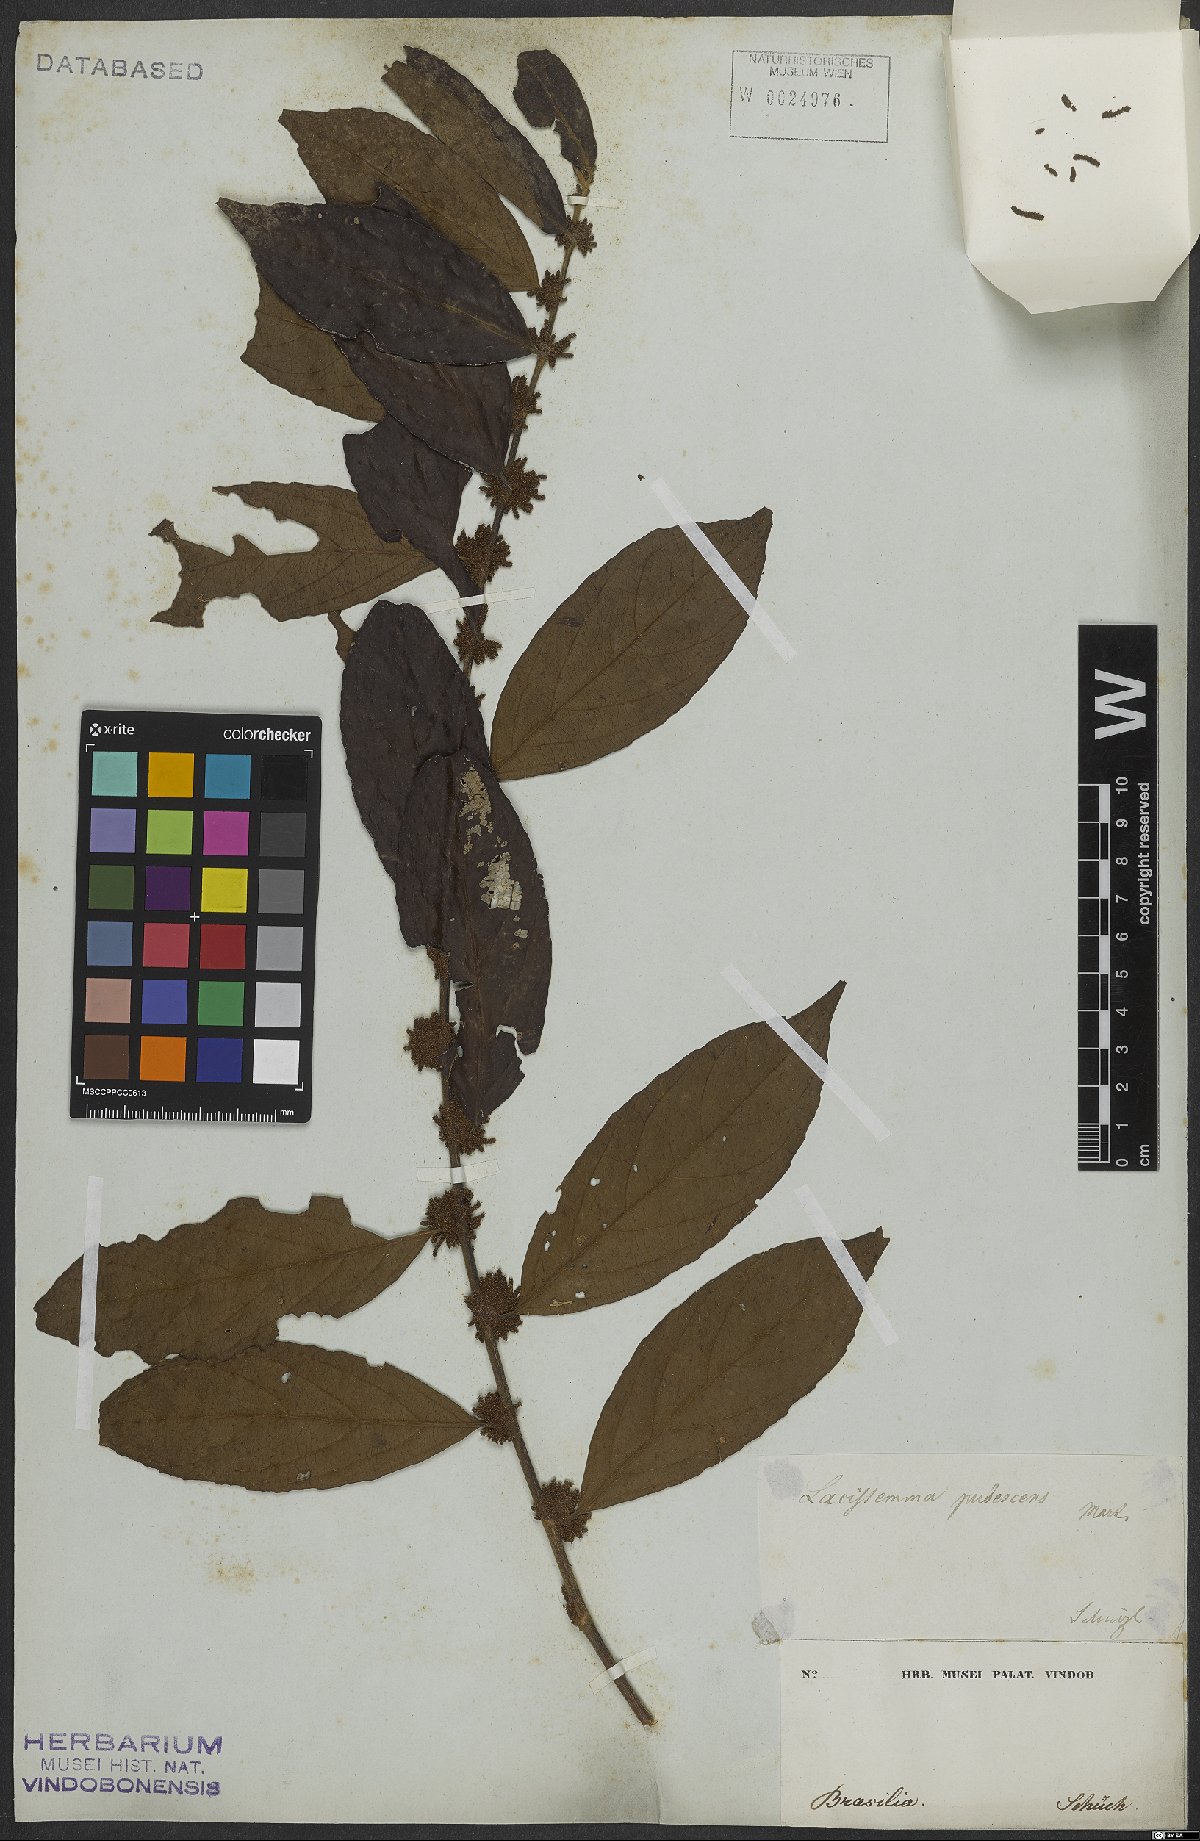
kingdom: Plantae
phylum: Tracheophyta
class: Magnoliopsida
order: Malpighiales
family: Lacistemataceae
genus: Lacistema
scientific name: Lacistema pubescens
